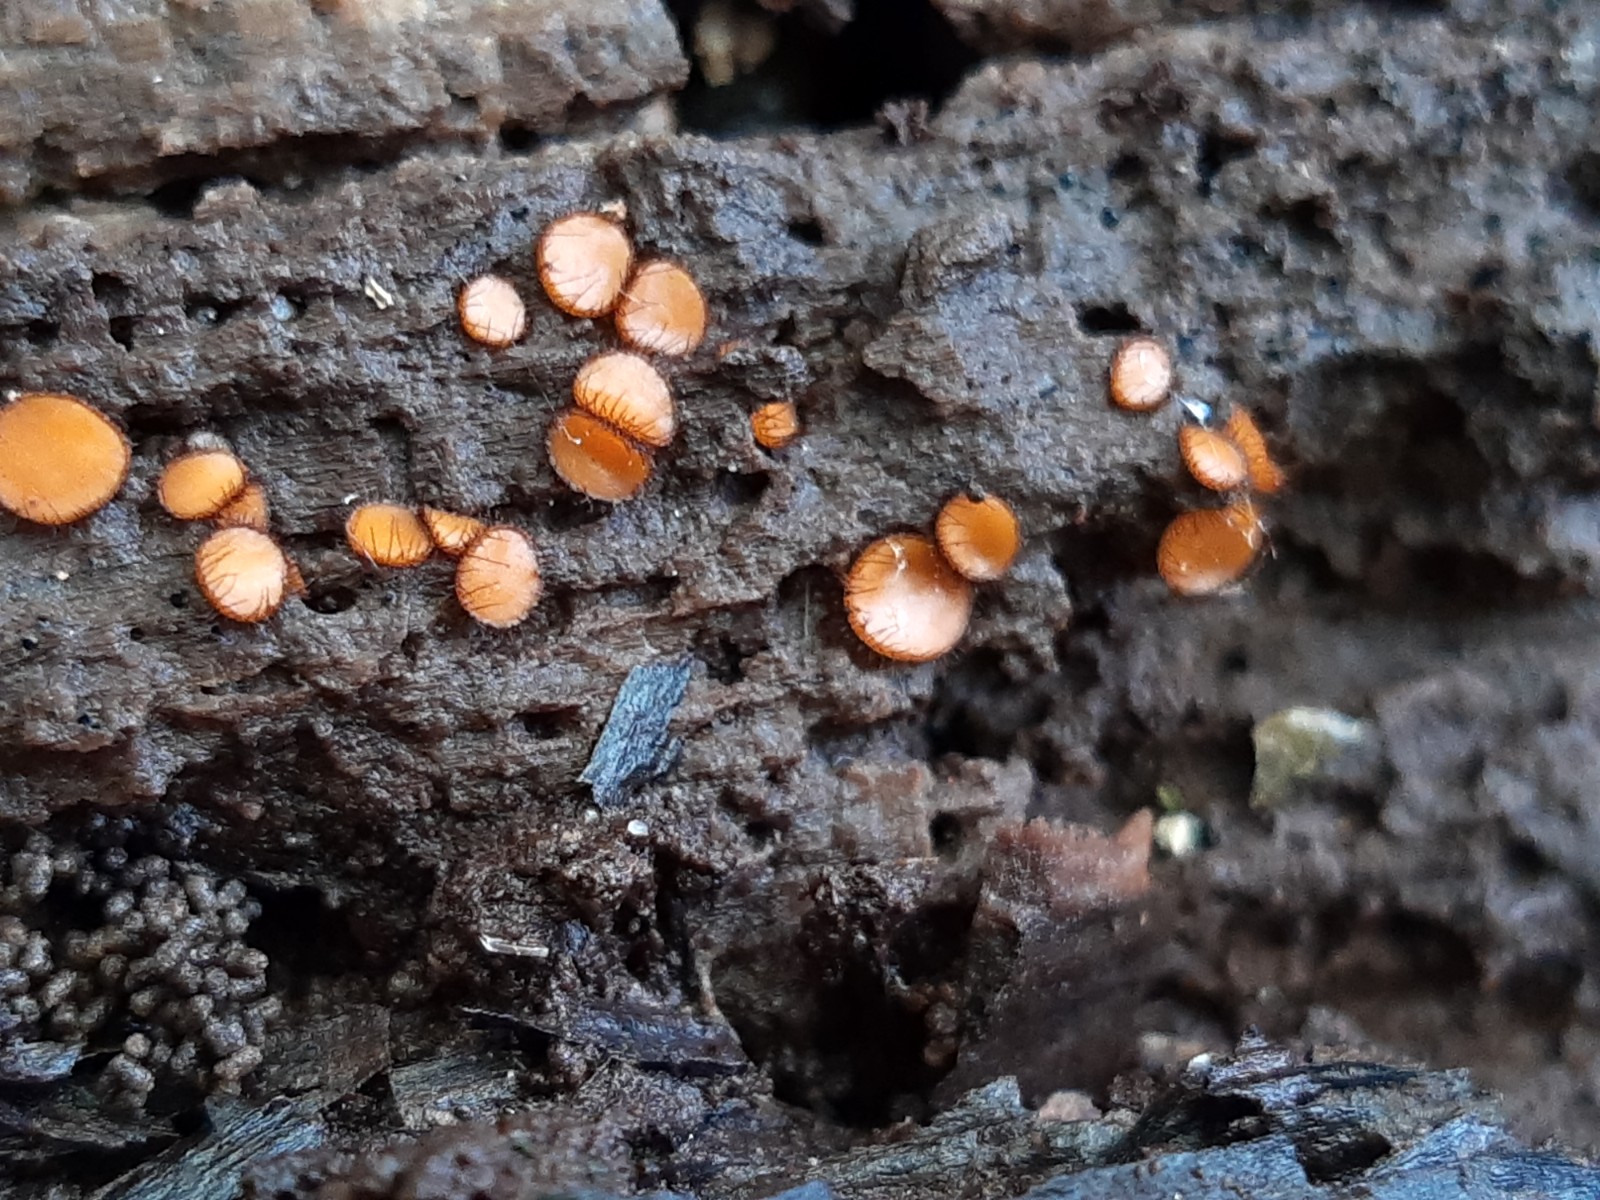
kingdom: Fungi
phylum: Ascomycota
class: Pezizomycetes
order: Pezizales
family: Pyronemataceae
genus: Scutellinia
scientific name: Scutellinia
